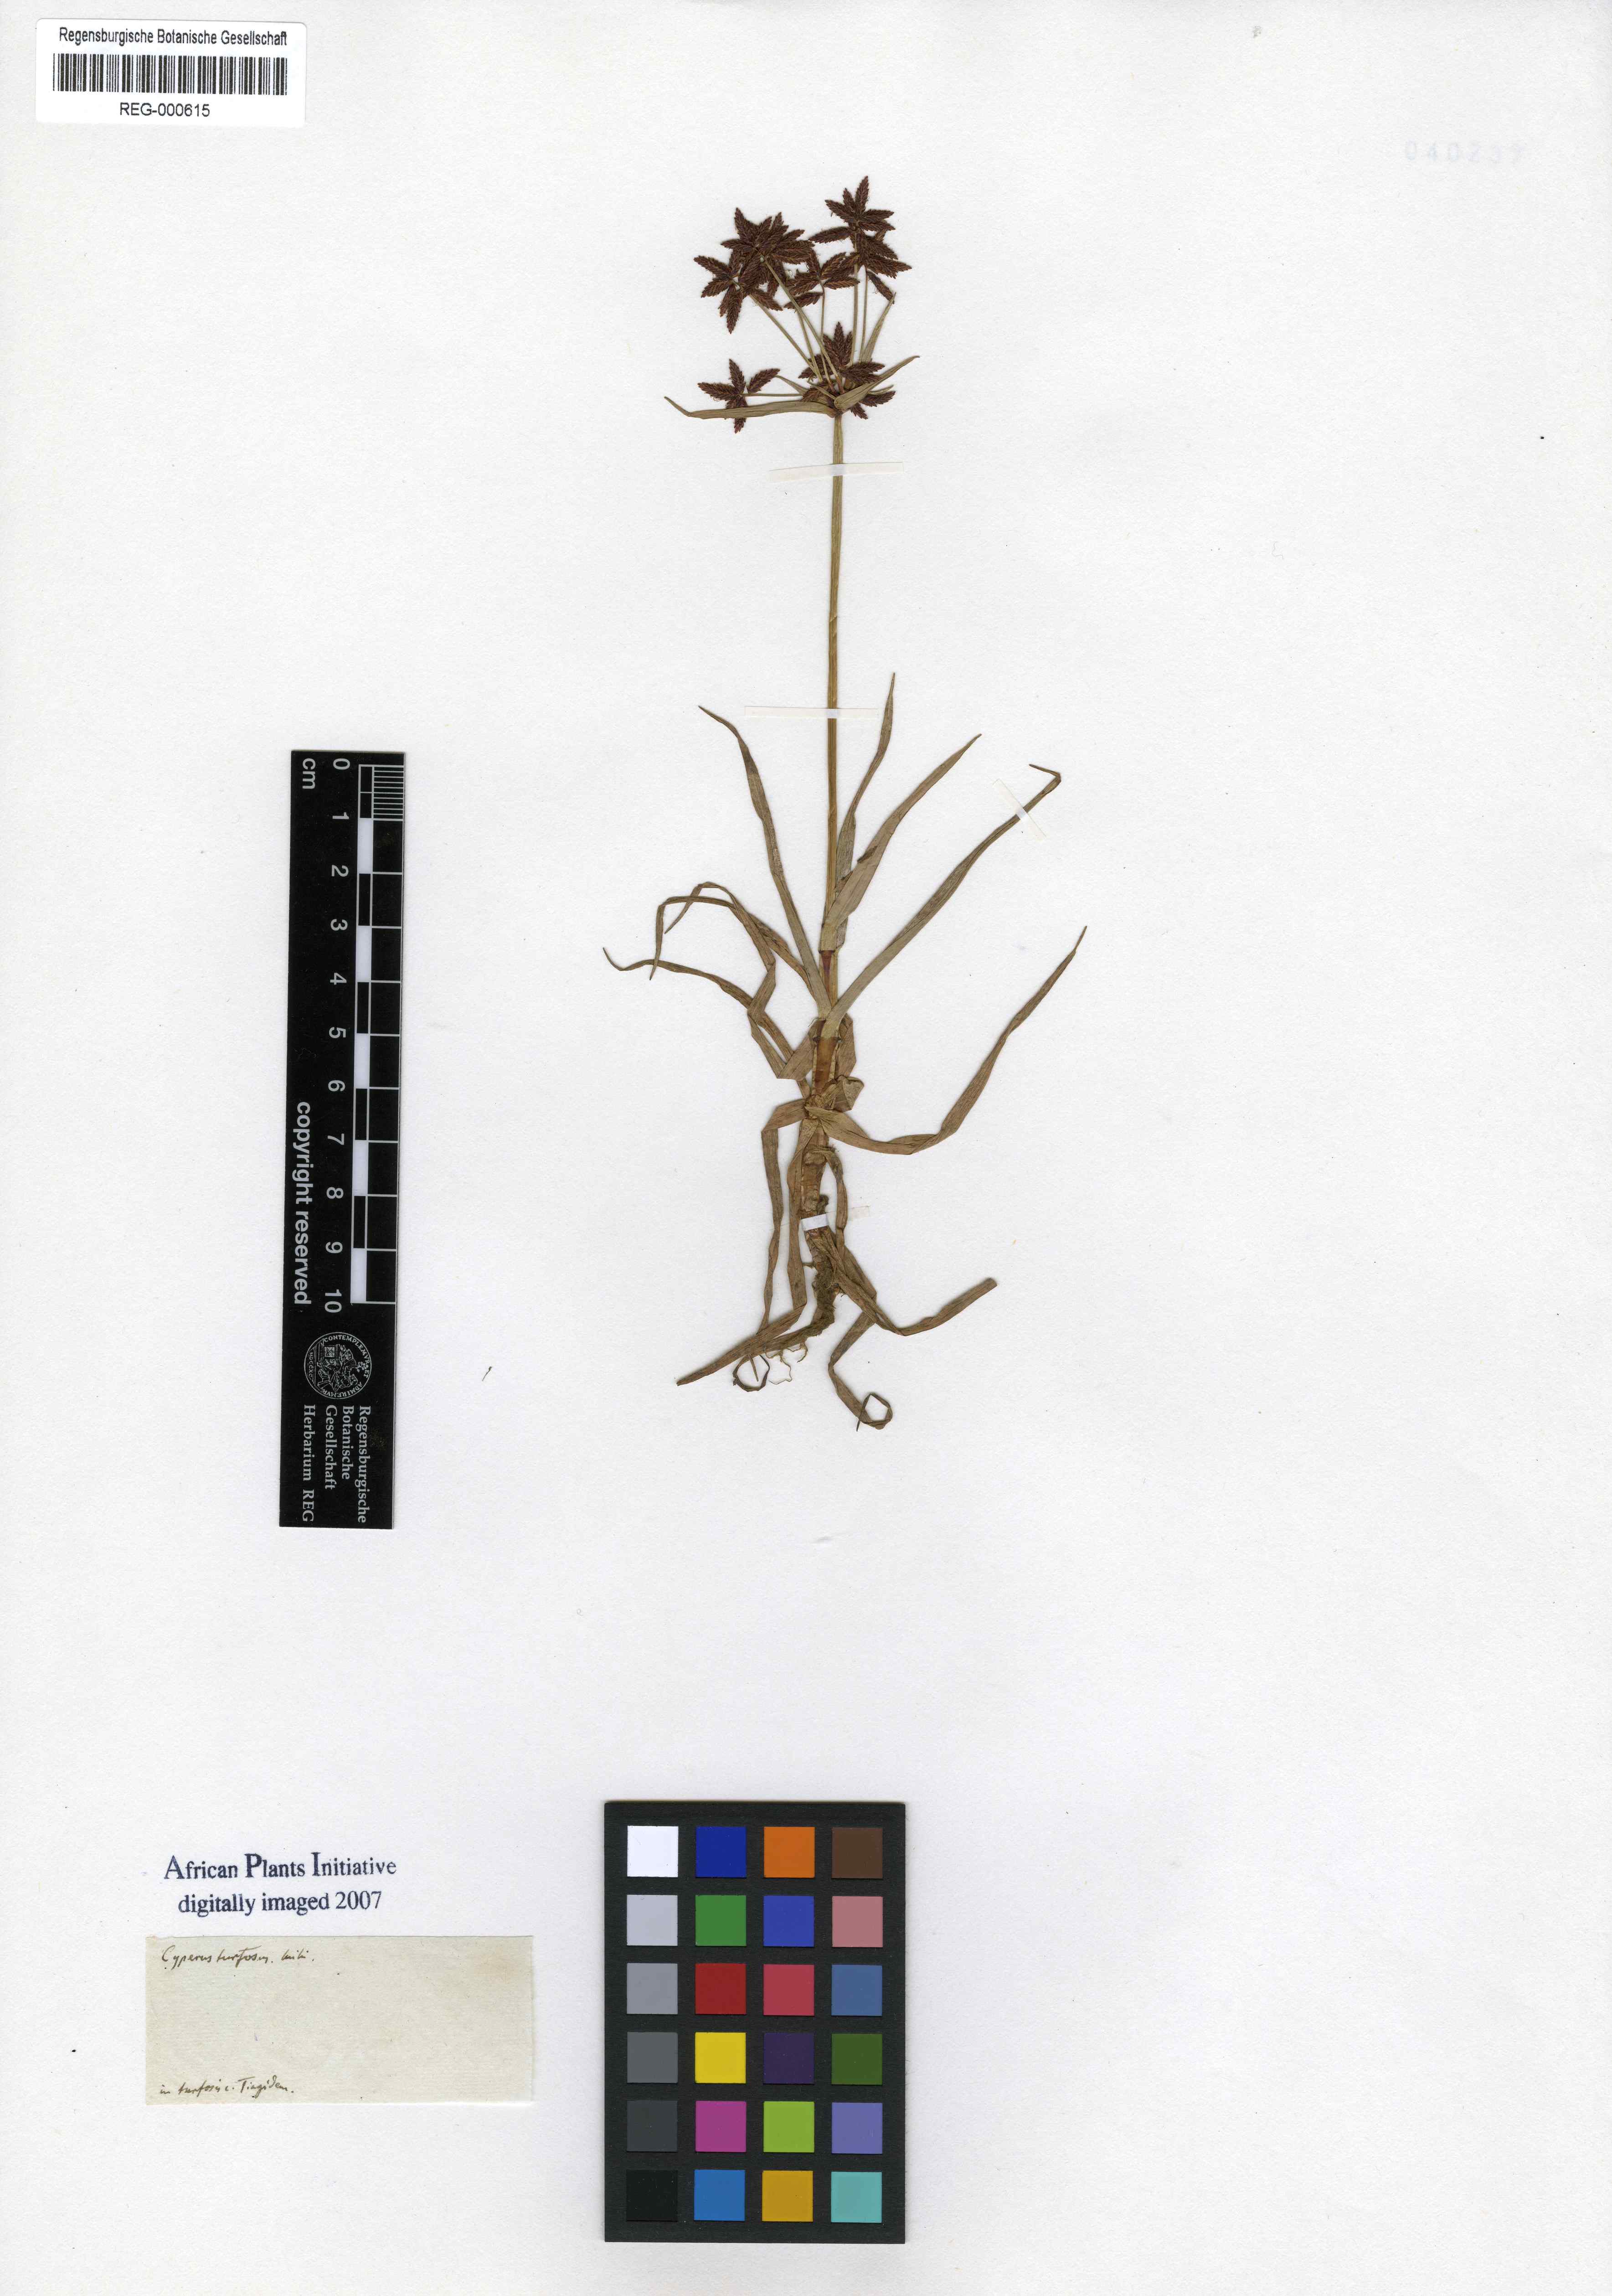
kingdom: Plantae
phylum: Tracheophyta
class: Liliopsida
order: Poales
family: Cyperaceae
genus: Cyperus
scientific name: Cyperus microbolbos
